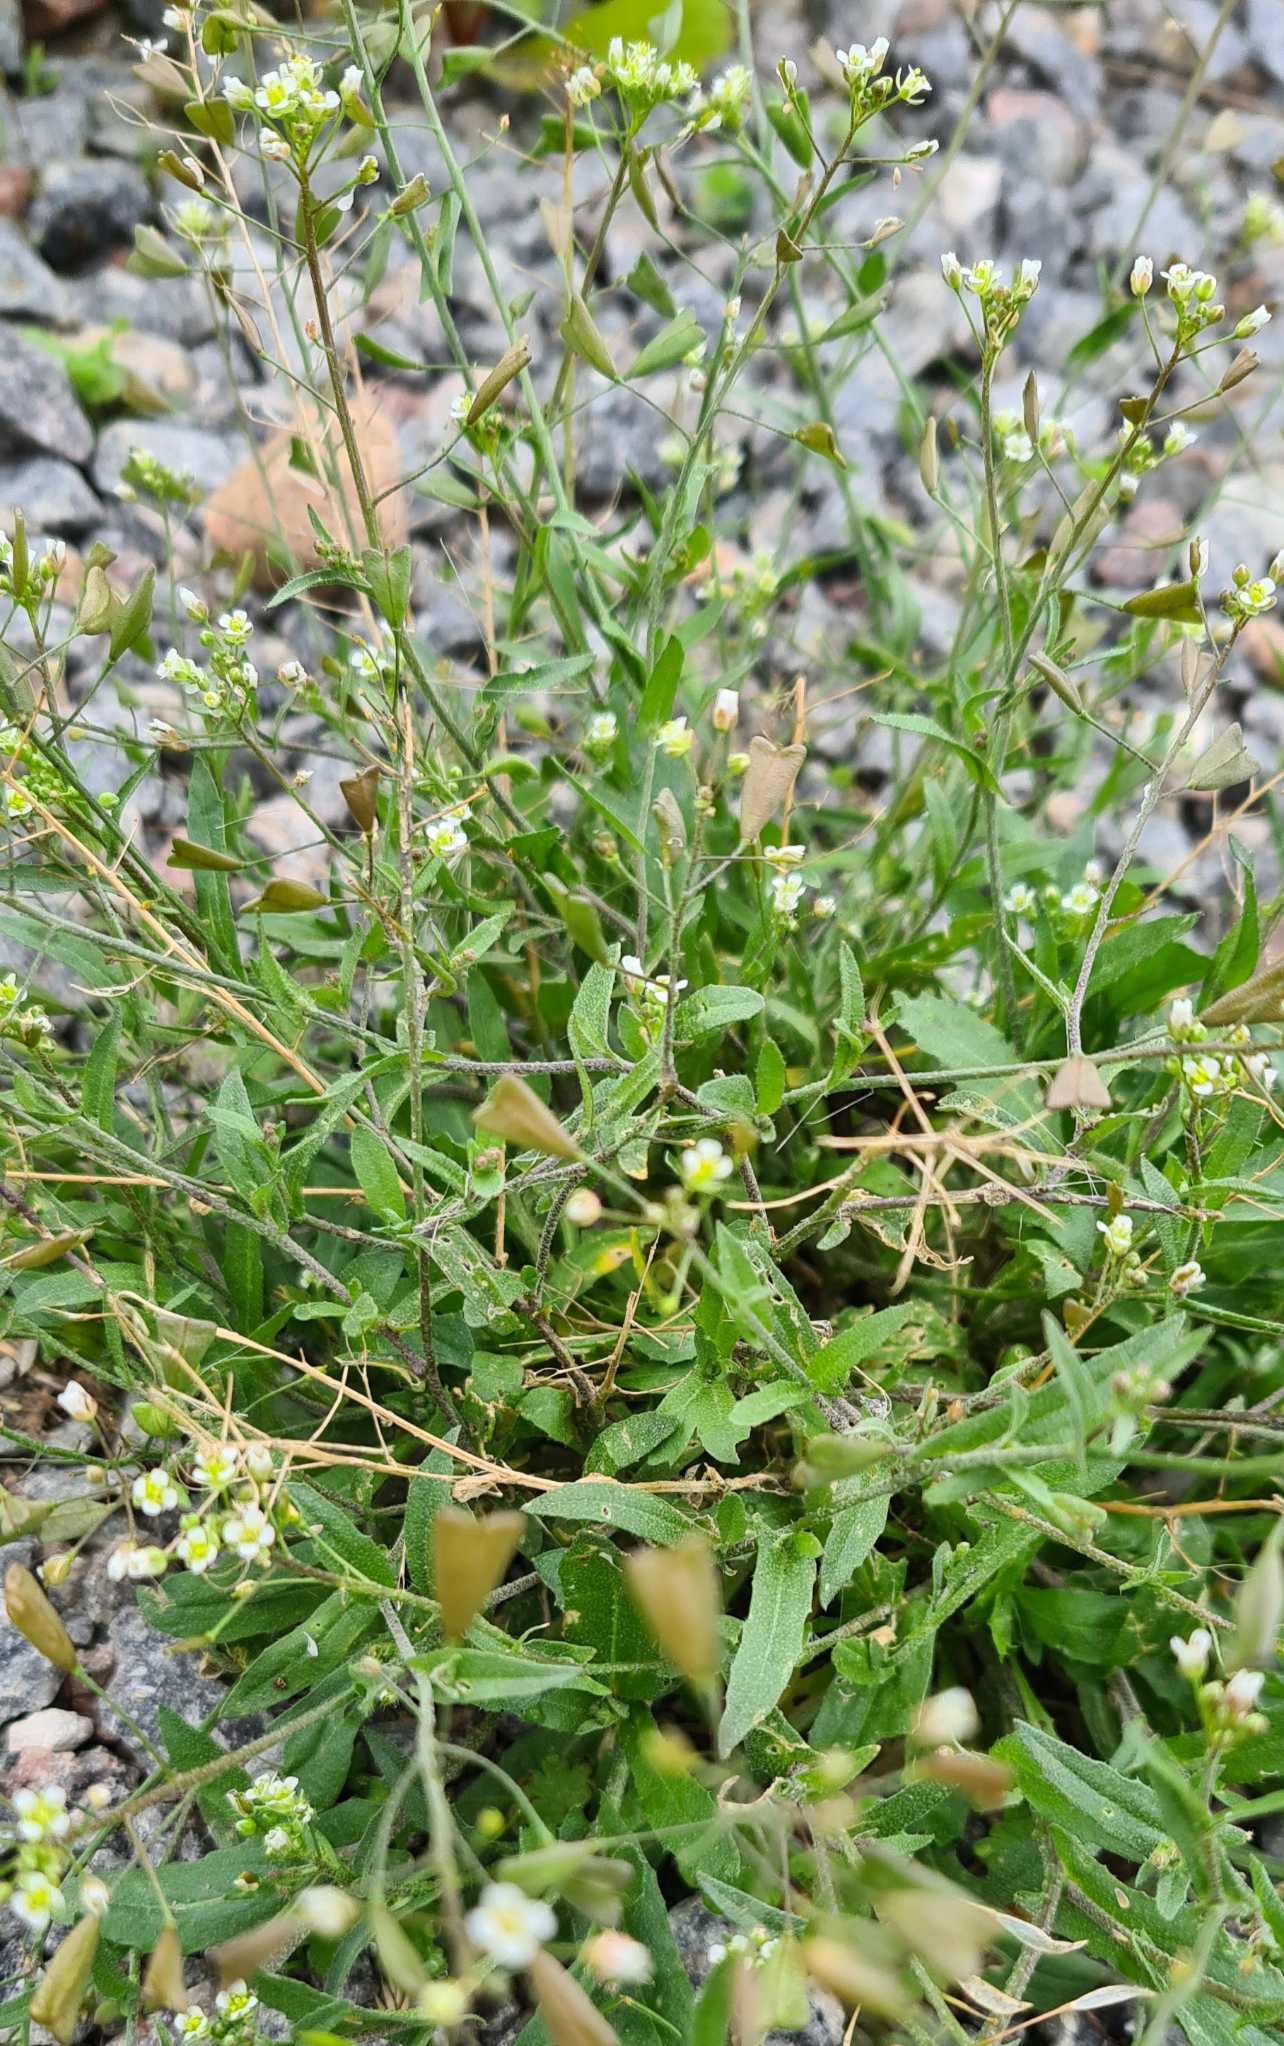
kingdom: Plantae
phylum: Tracheophyta
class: Magnoliopsida
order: Brassicales
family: Brassicaceae
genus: Capsella
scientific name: Capsella bursa-pastoris
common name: Hyrdetaske
